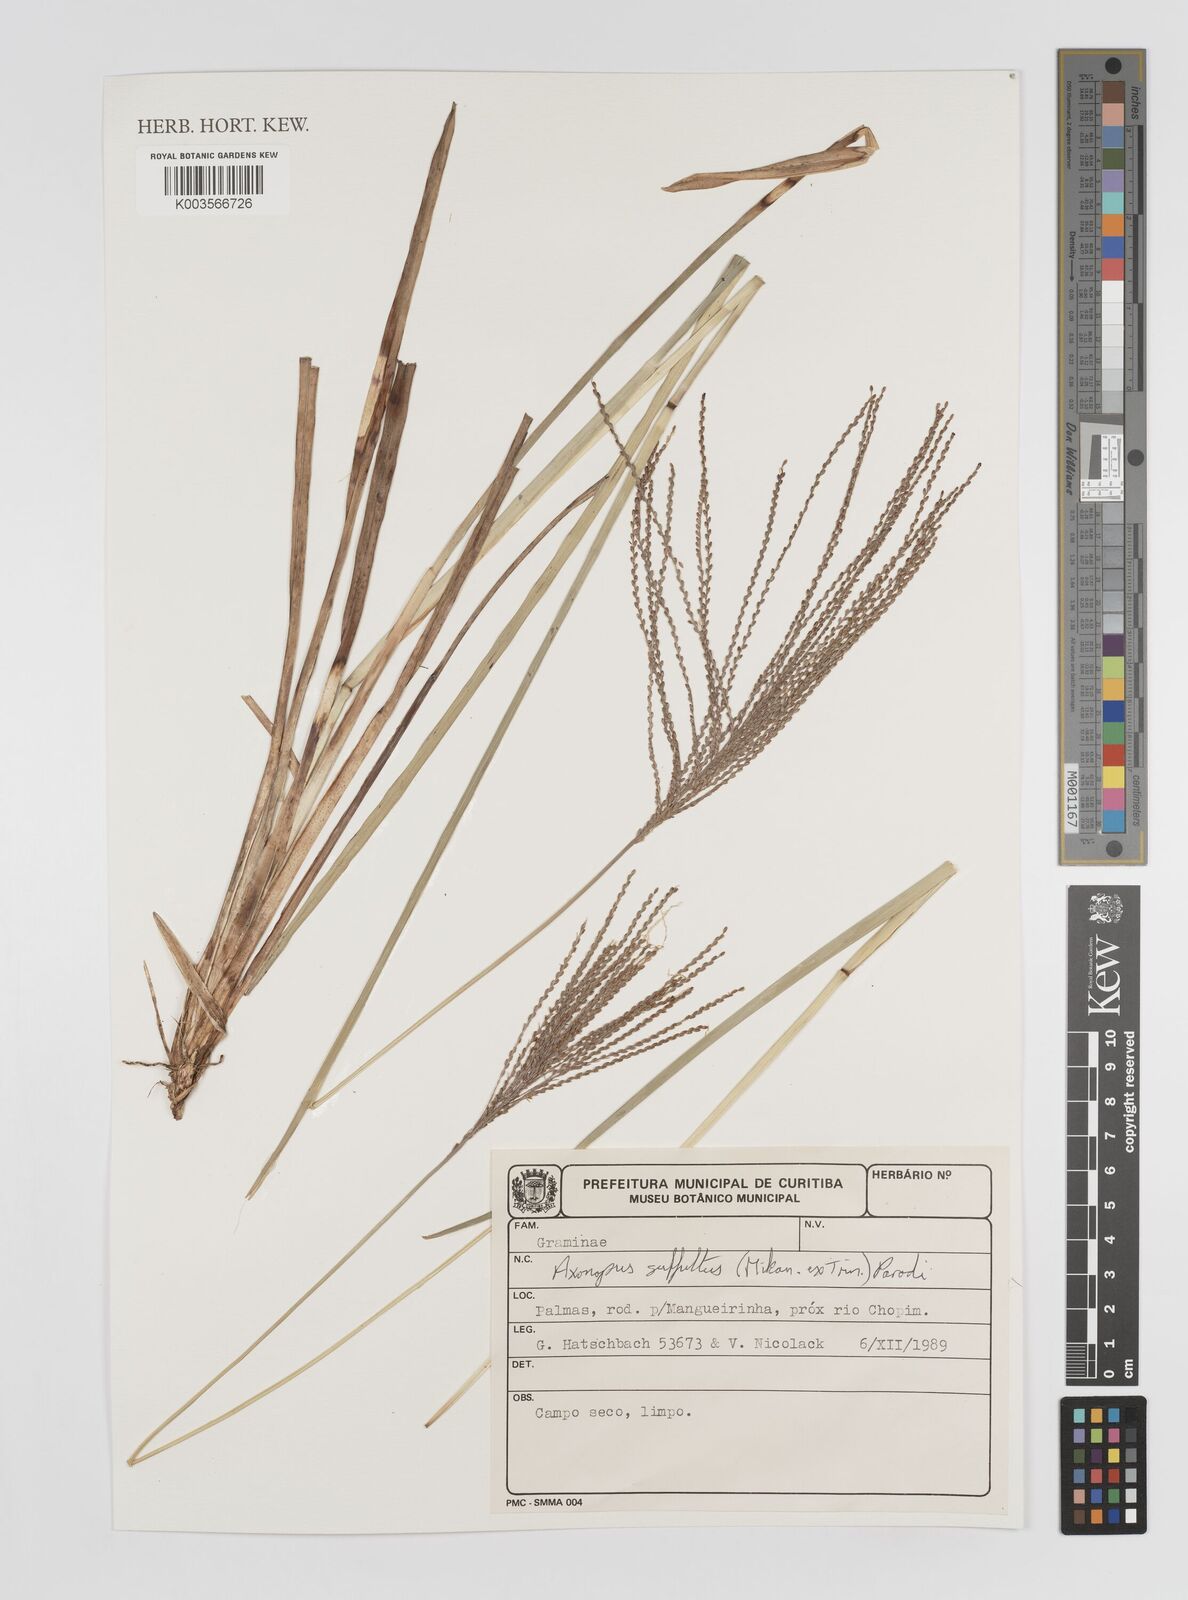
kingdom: Plantae
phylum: Tracheophyta
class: Liliopsida
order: Poales
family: Poaceae
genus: Axonopus
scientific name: Axonopus suffultus
